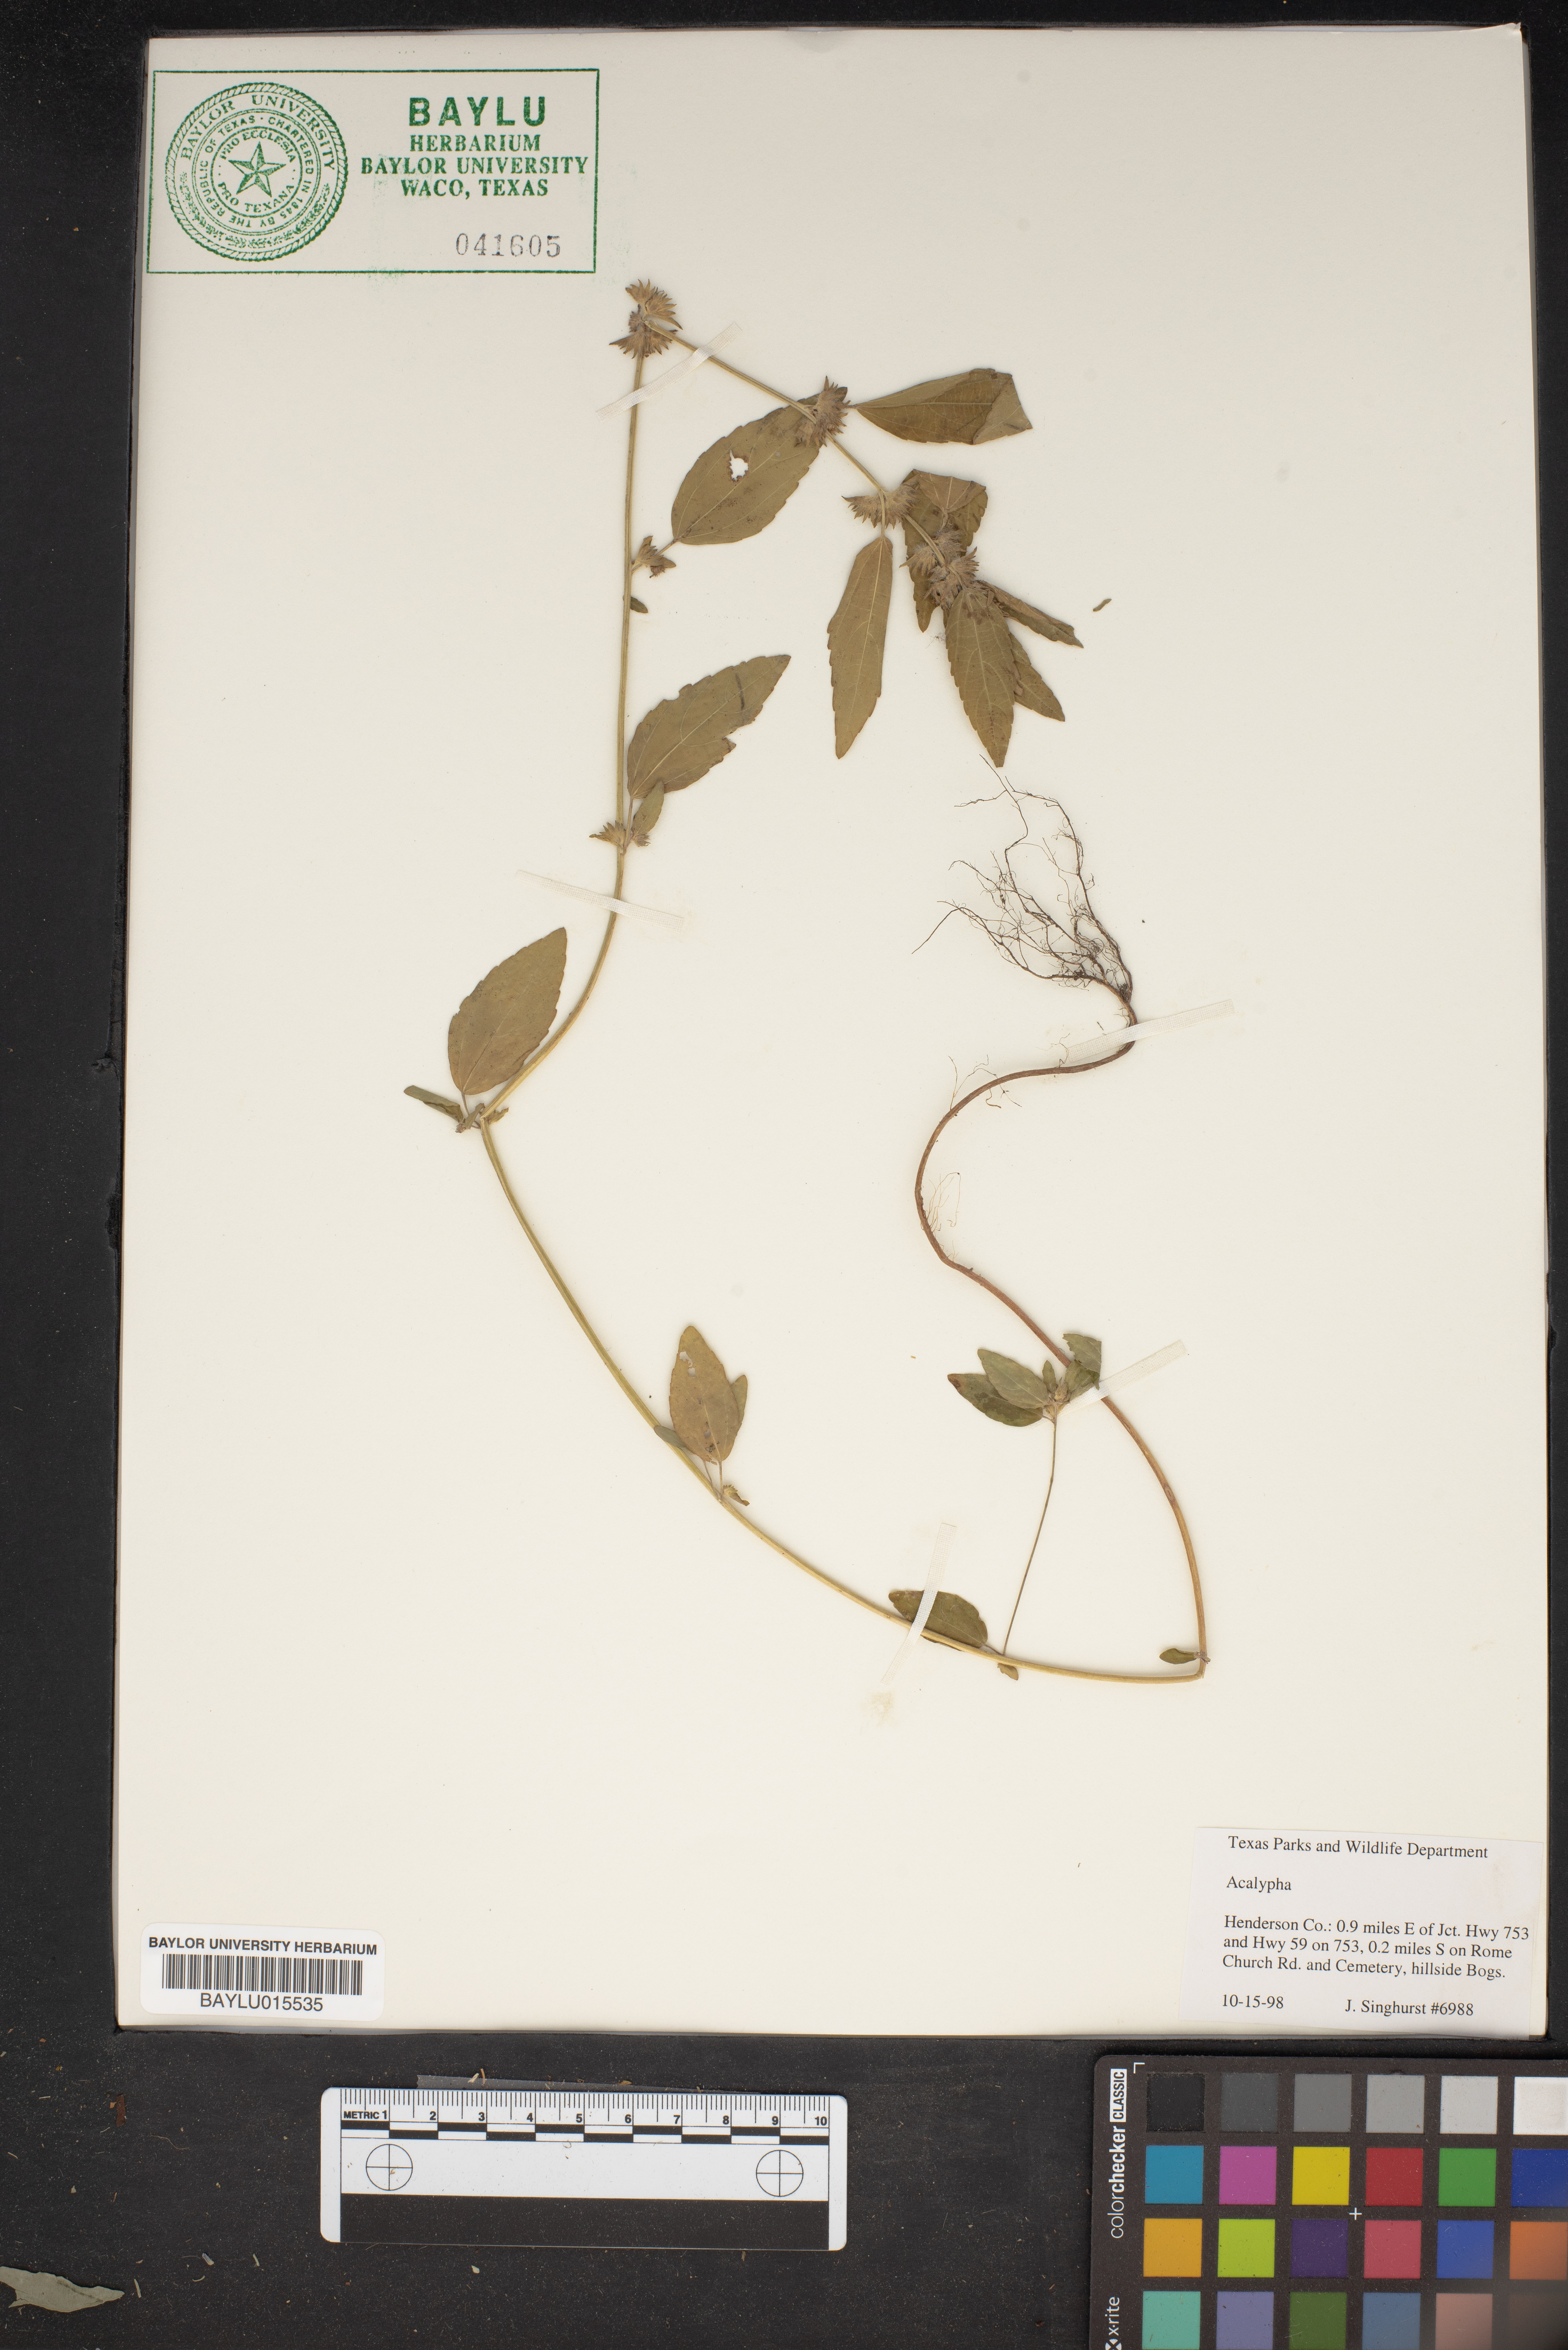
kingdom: Plantae
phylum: Tracheophyta
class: Magnoliopsida
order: Malpighiales
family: Euphorbiaceae
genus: Acalypha
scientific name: Acalypha
